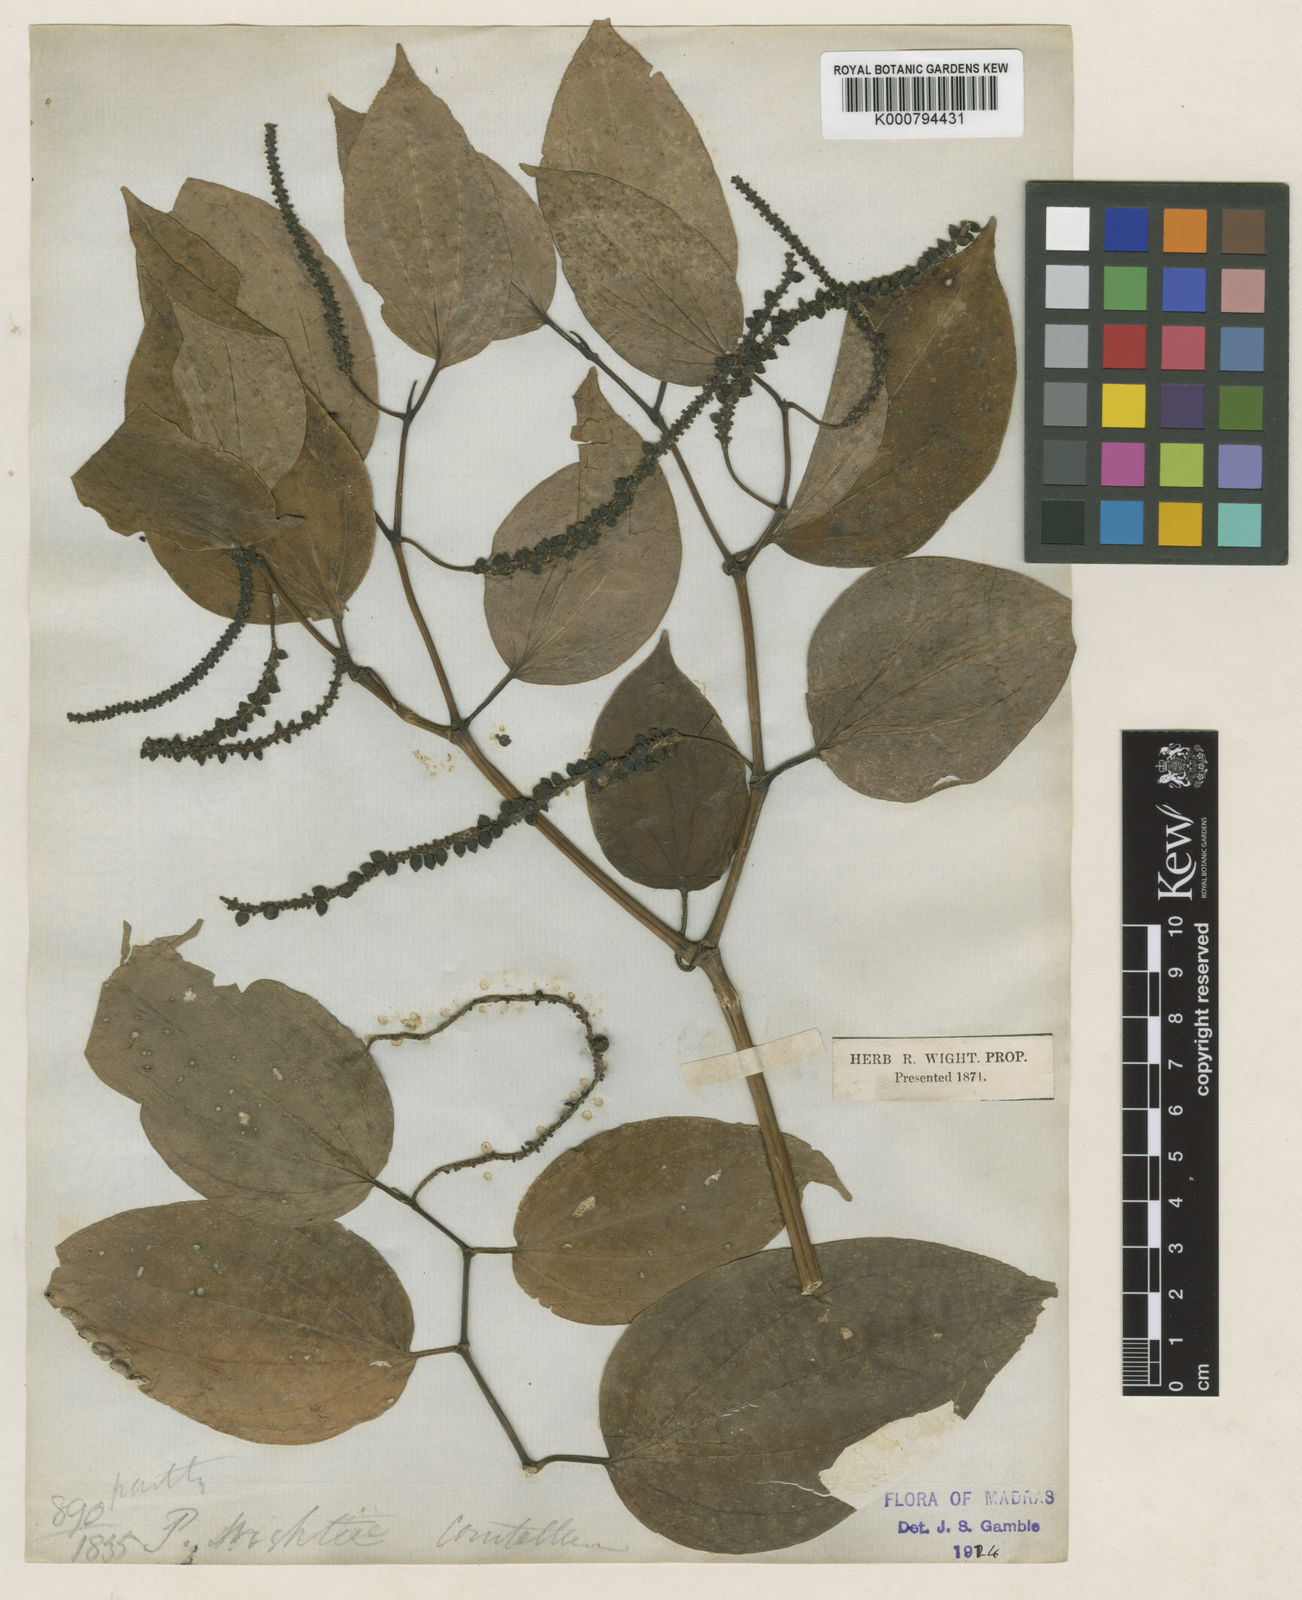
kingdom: Plantae
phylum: Tracheophyta
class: Magnoliopsida
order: Piperales
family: Piperaceae
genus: Piper
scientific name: Piper wightii
